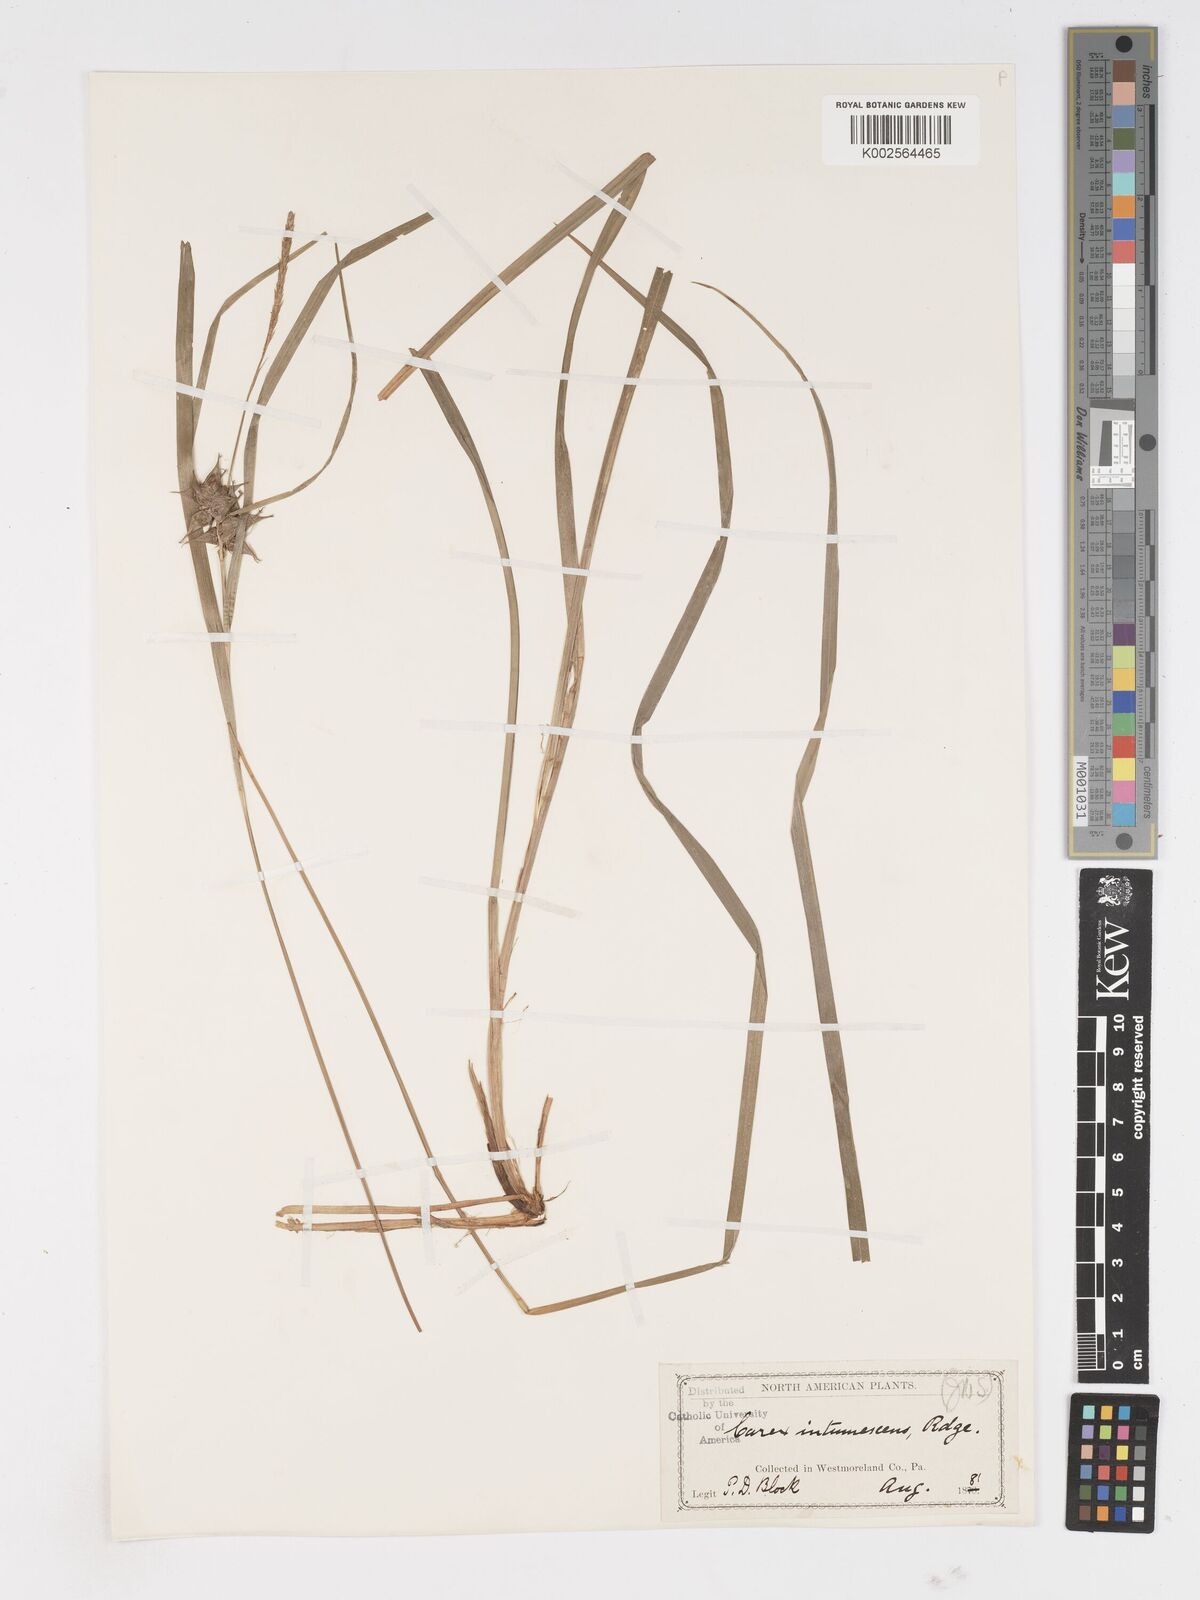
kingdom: Plantae
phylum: Tracheophyta
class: Liliopsida
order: Poales
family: Cyperaceae
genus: Carex
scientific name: Carex intumescens
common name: Greater bladder sedge
